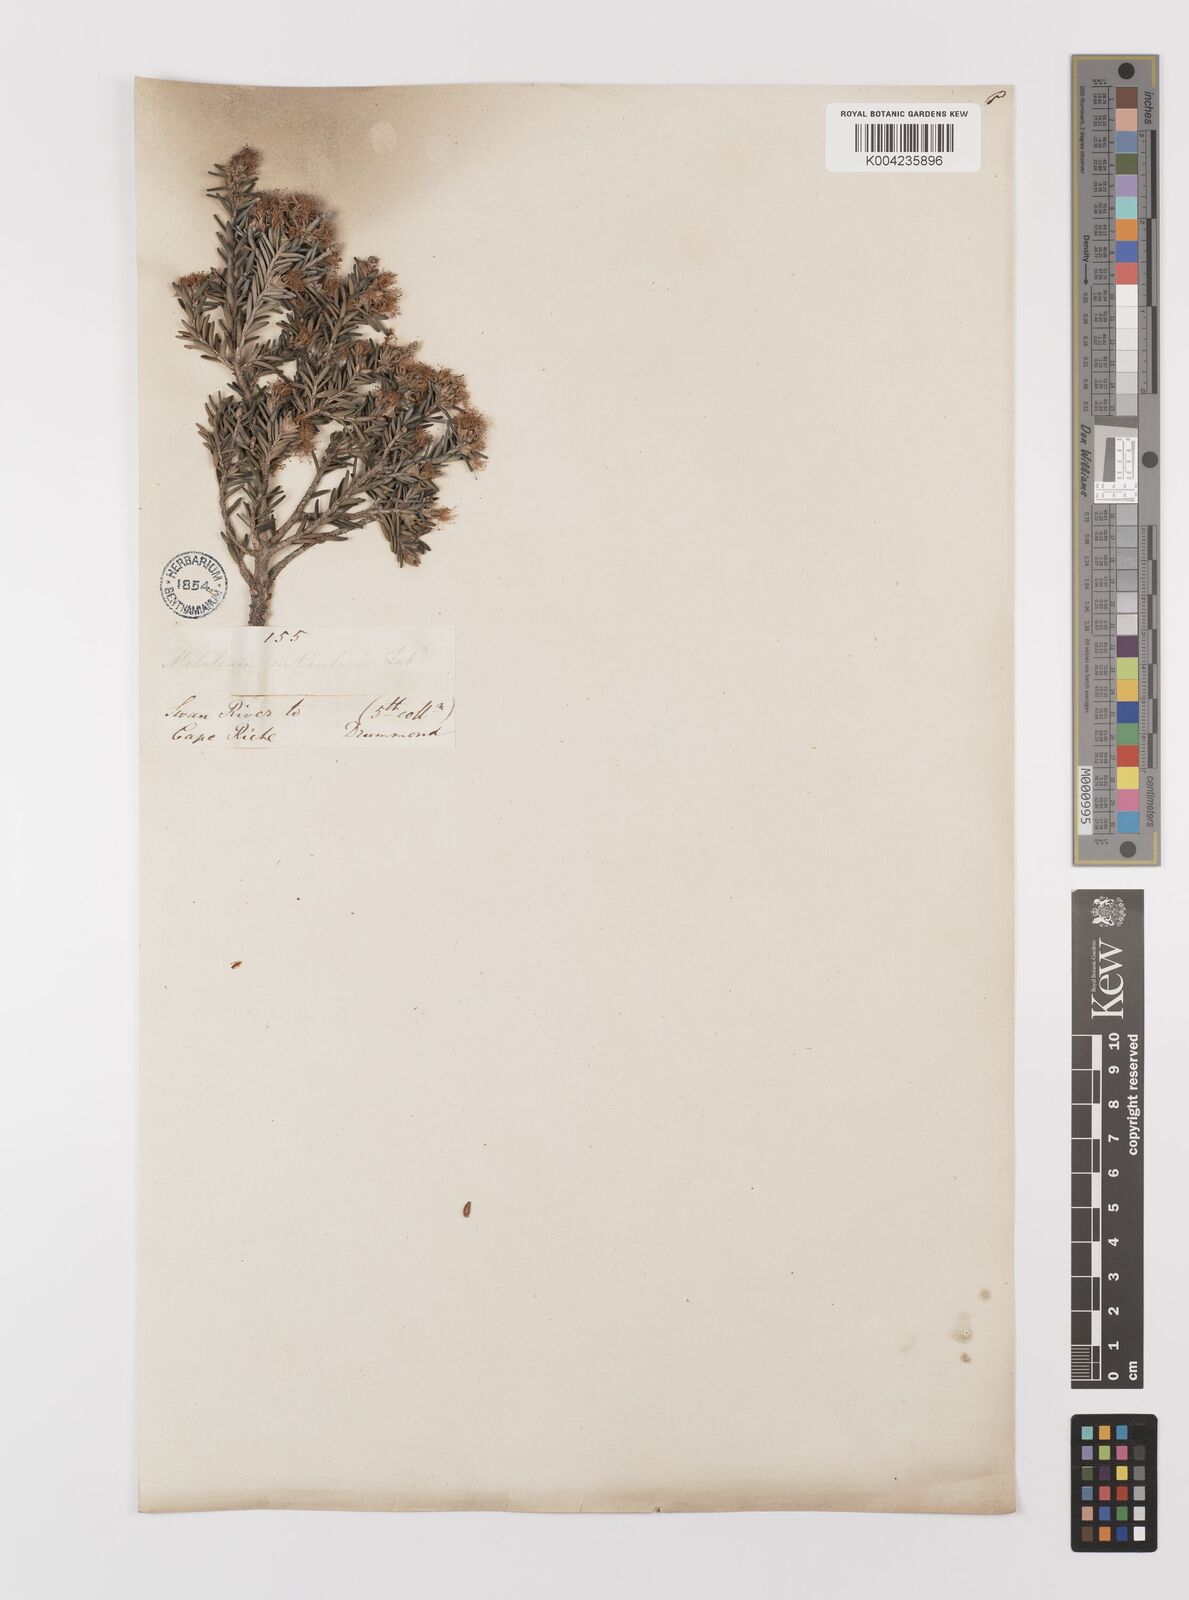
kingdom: Plantae
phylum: Tracheophyta
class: Magnoliopsida
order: Myrtales
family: Myrtaceae
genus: Melaleuca
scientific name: Melaleuca cuticularis
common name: Saltwater paperbark
